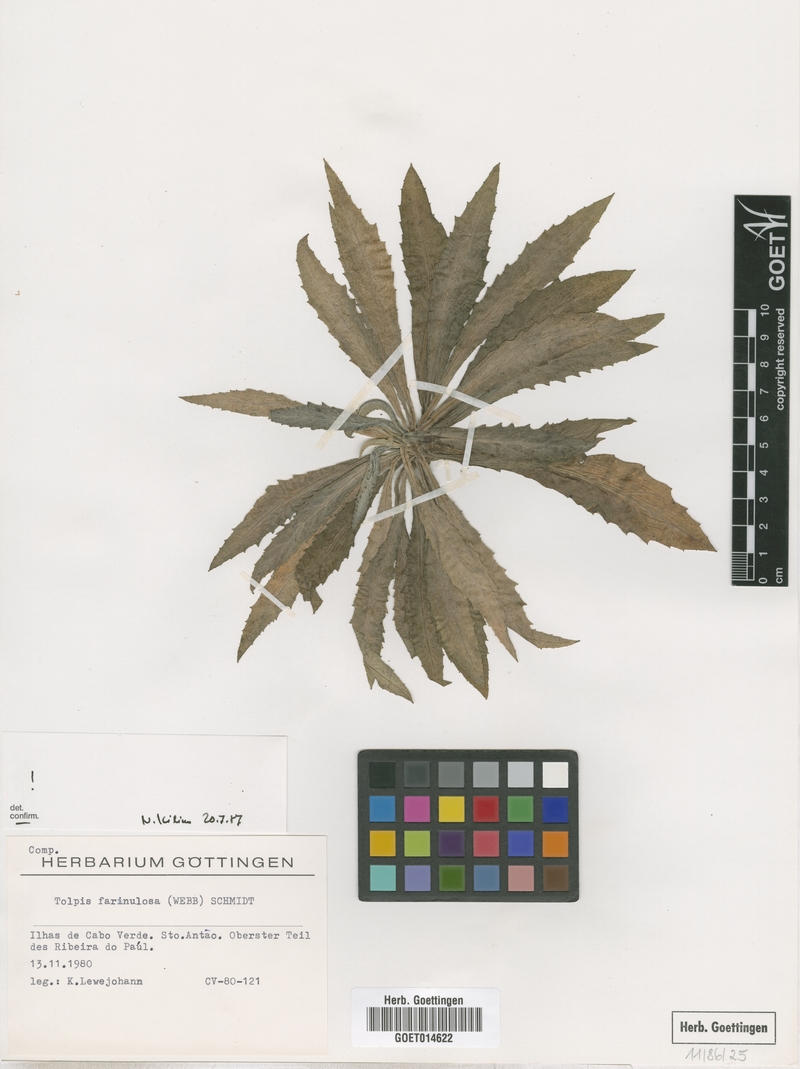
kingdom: Plantae
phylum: Tracheophyta
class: Magnoliopsida
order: Asterales
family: Asteraceae
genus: Tolpis
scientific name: Tolpis farinulosa
